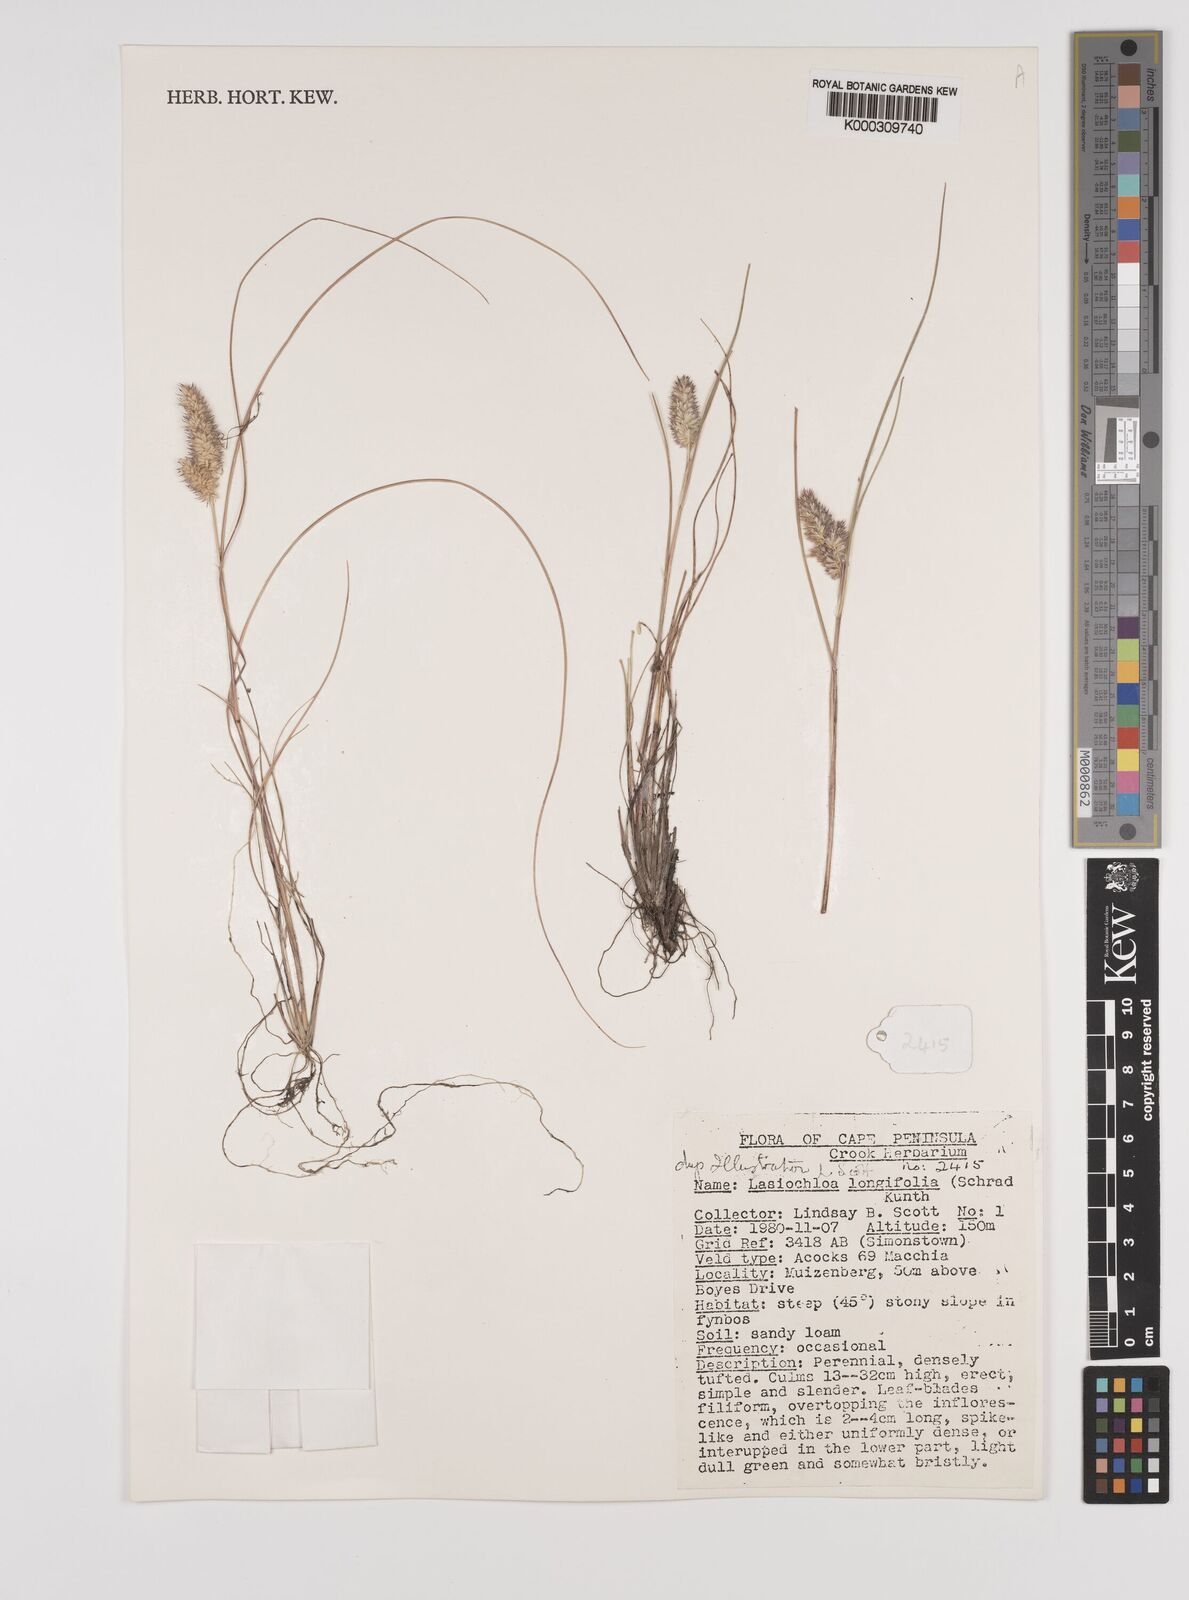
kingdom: Plantae
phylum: Tracheophyta
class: Liliopsida
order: Poales
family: Poaceae
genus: Tribolium
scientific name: Tribolium hispidum
